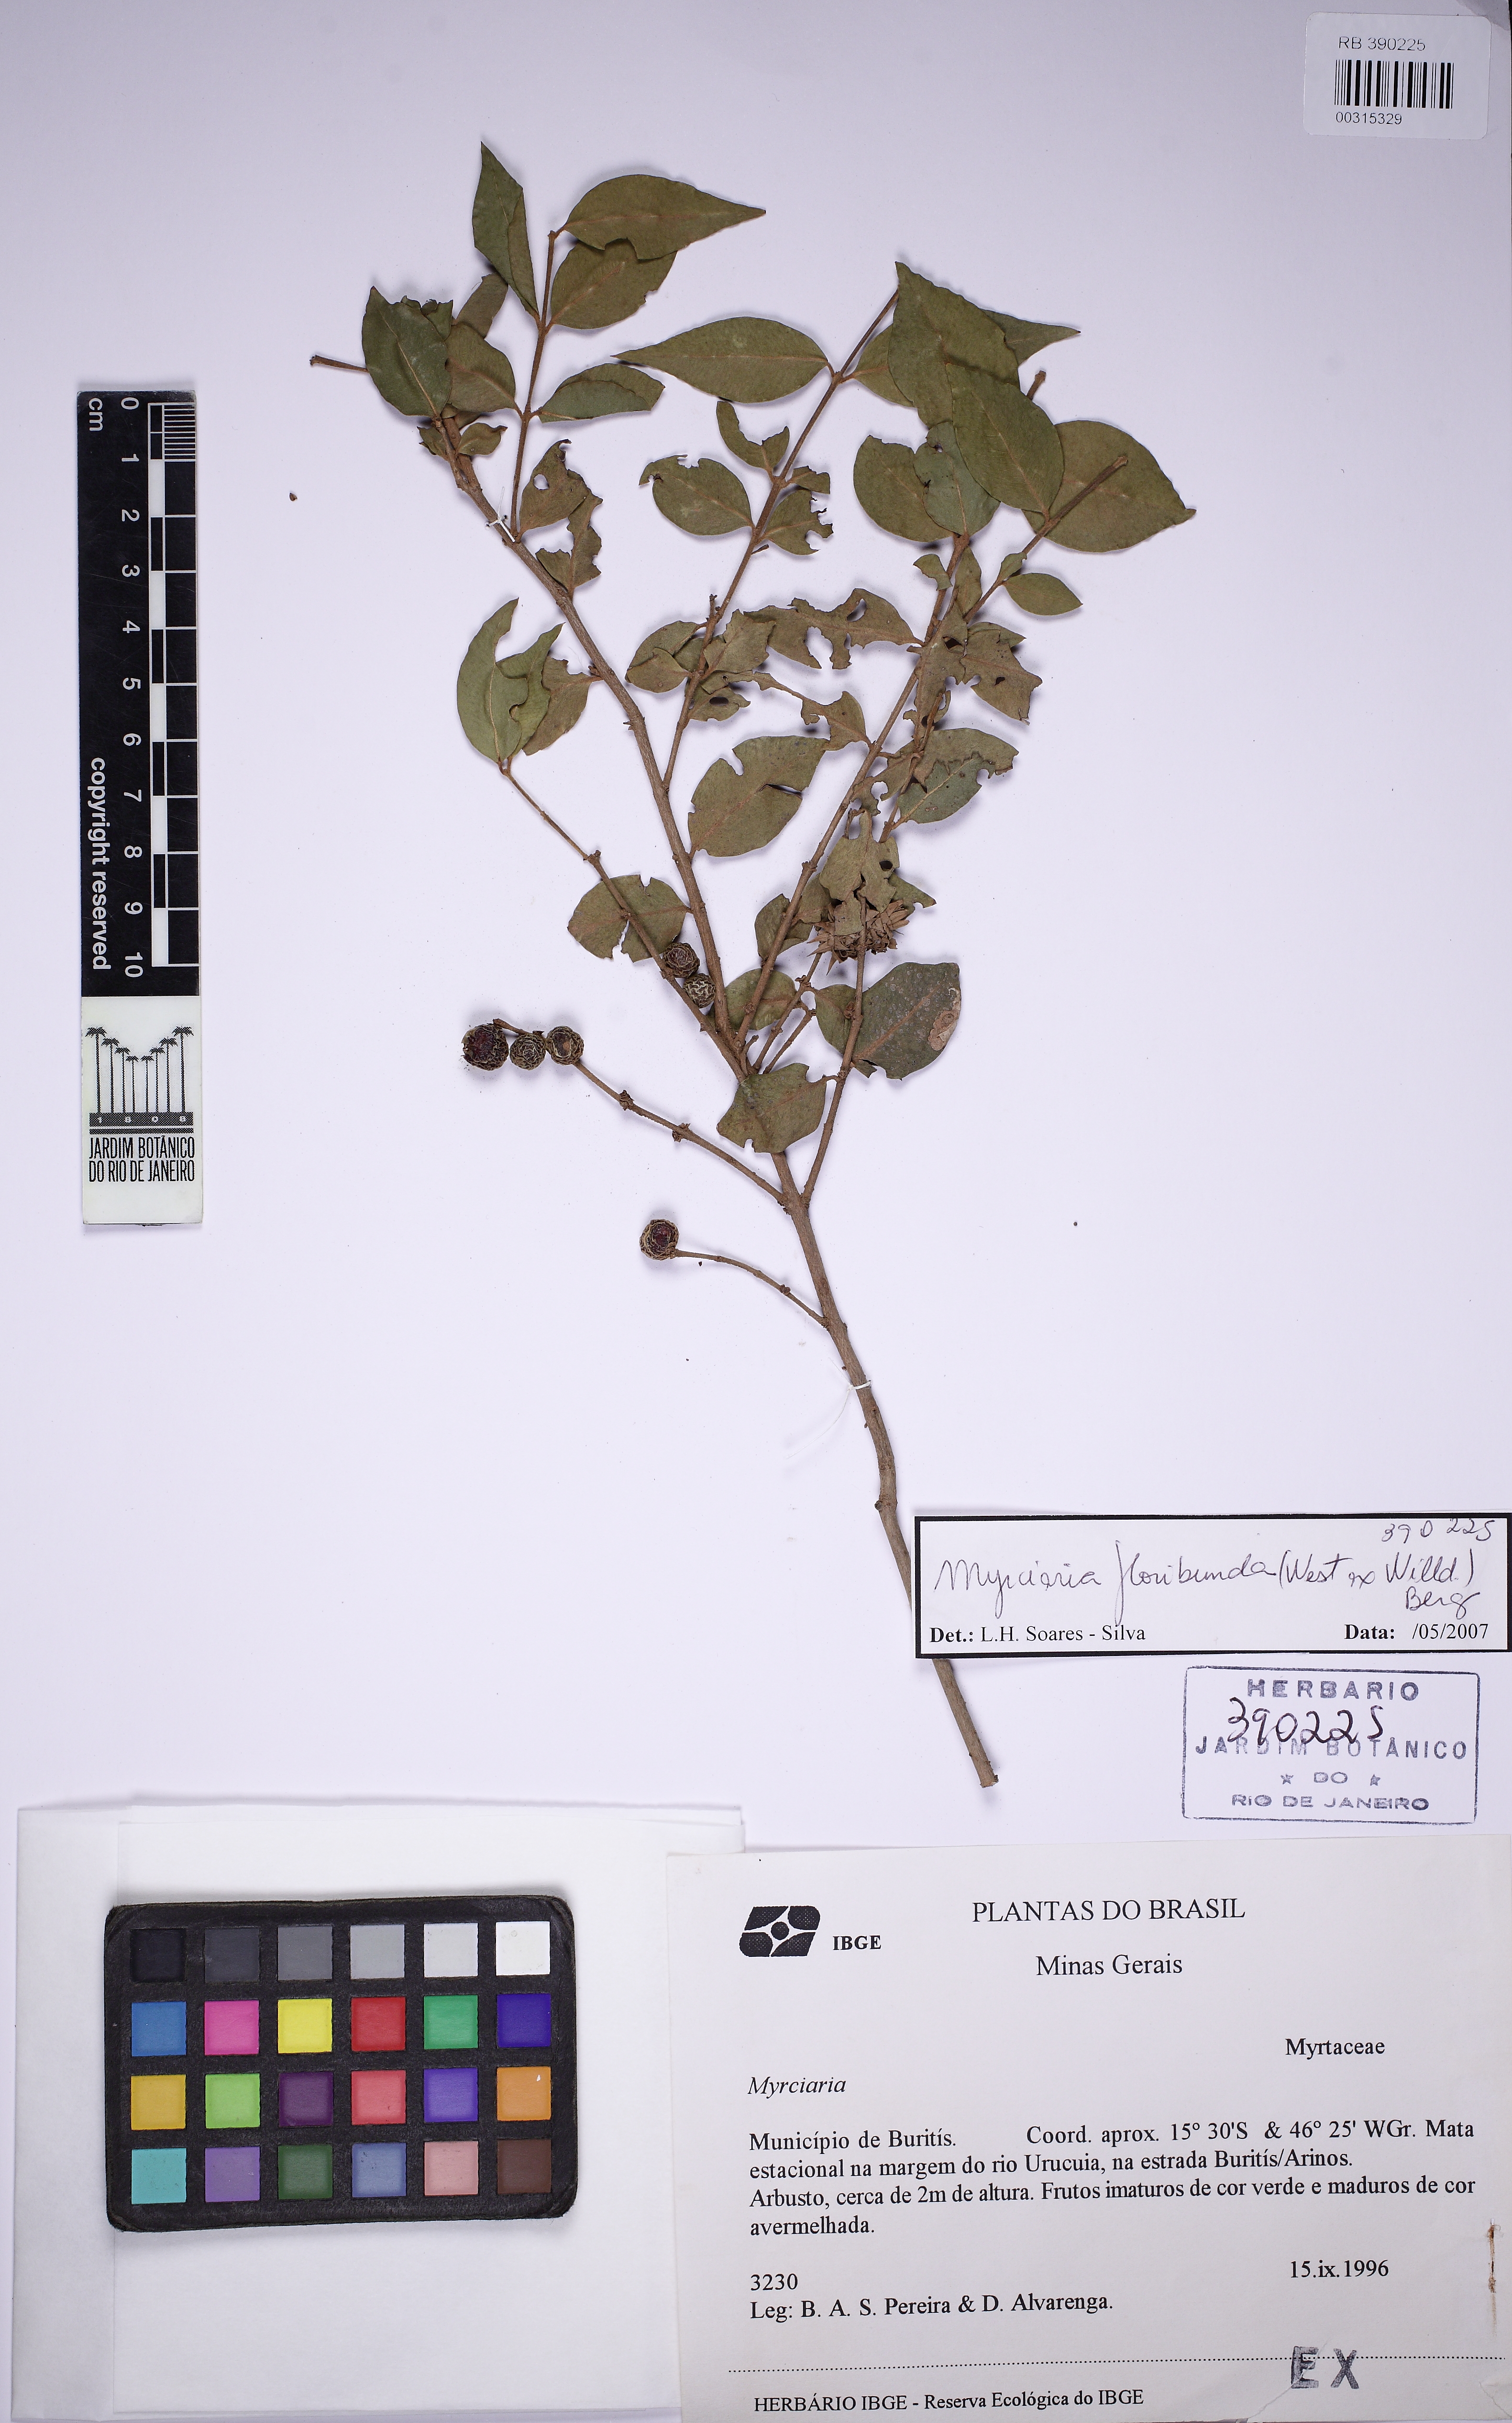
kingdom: Plantae
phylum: Tracheophyta
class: Magnoliopsida
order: Myrtales
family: Myrtaceae
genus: Myrciaria
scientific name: Myrciaria floribunda
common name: Guavaberry
